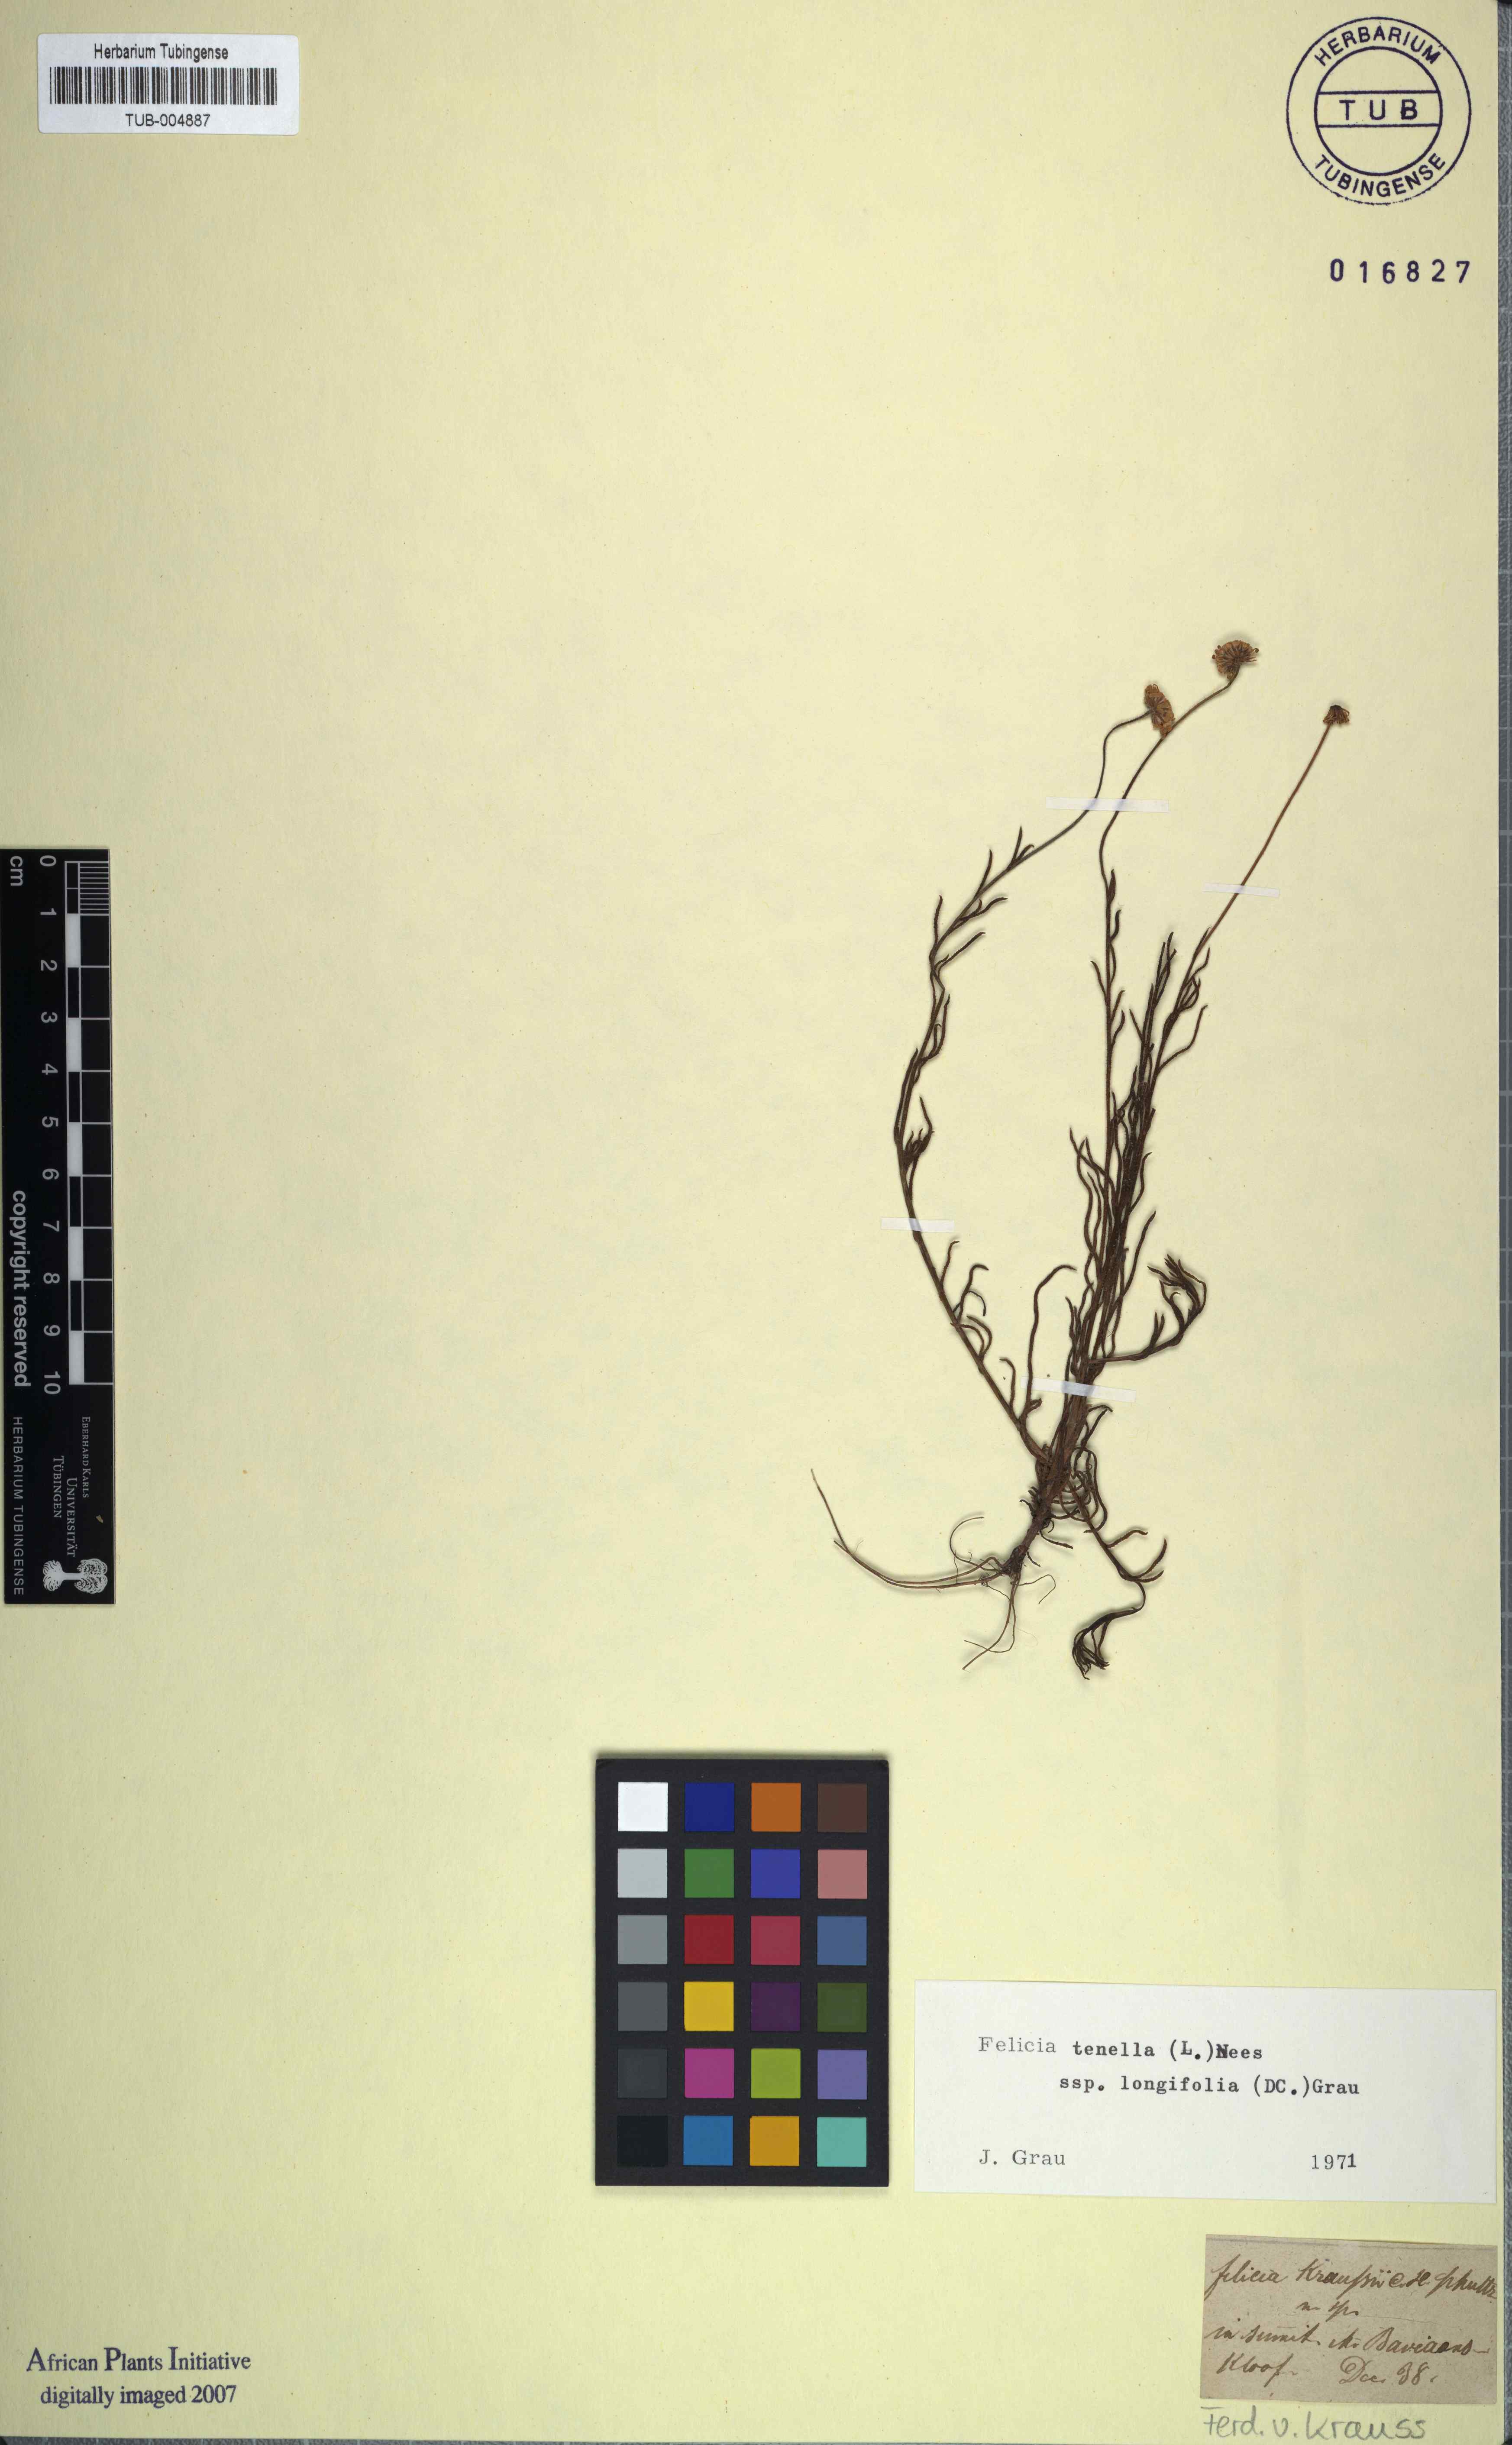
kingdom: Plantae
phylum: Tracheophyta
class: Magnoliopsida
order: Asterales
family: Asteraceae
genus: Felicia
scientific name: Felicia tenella
